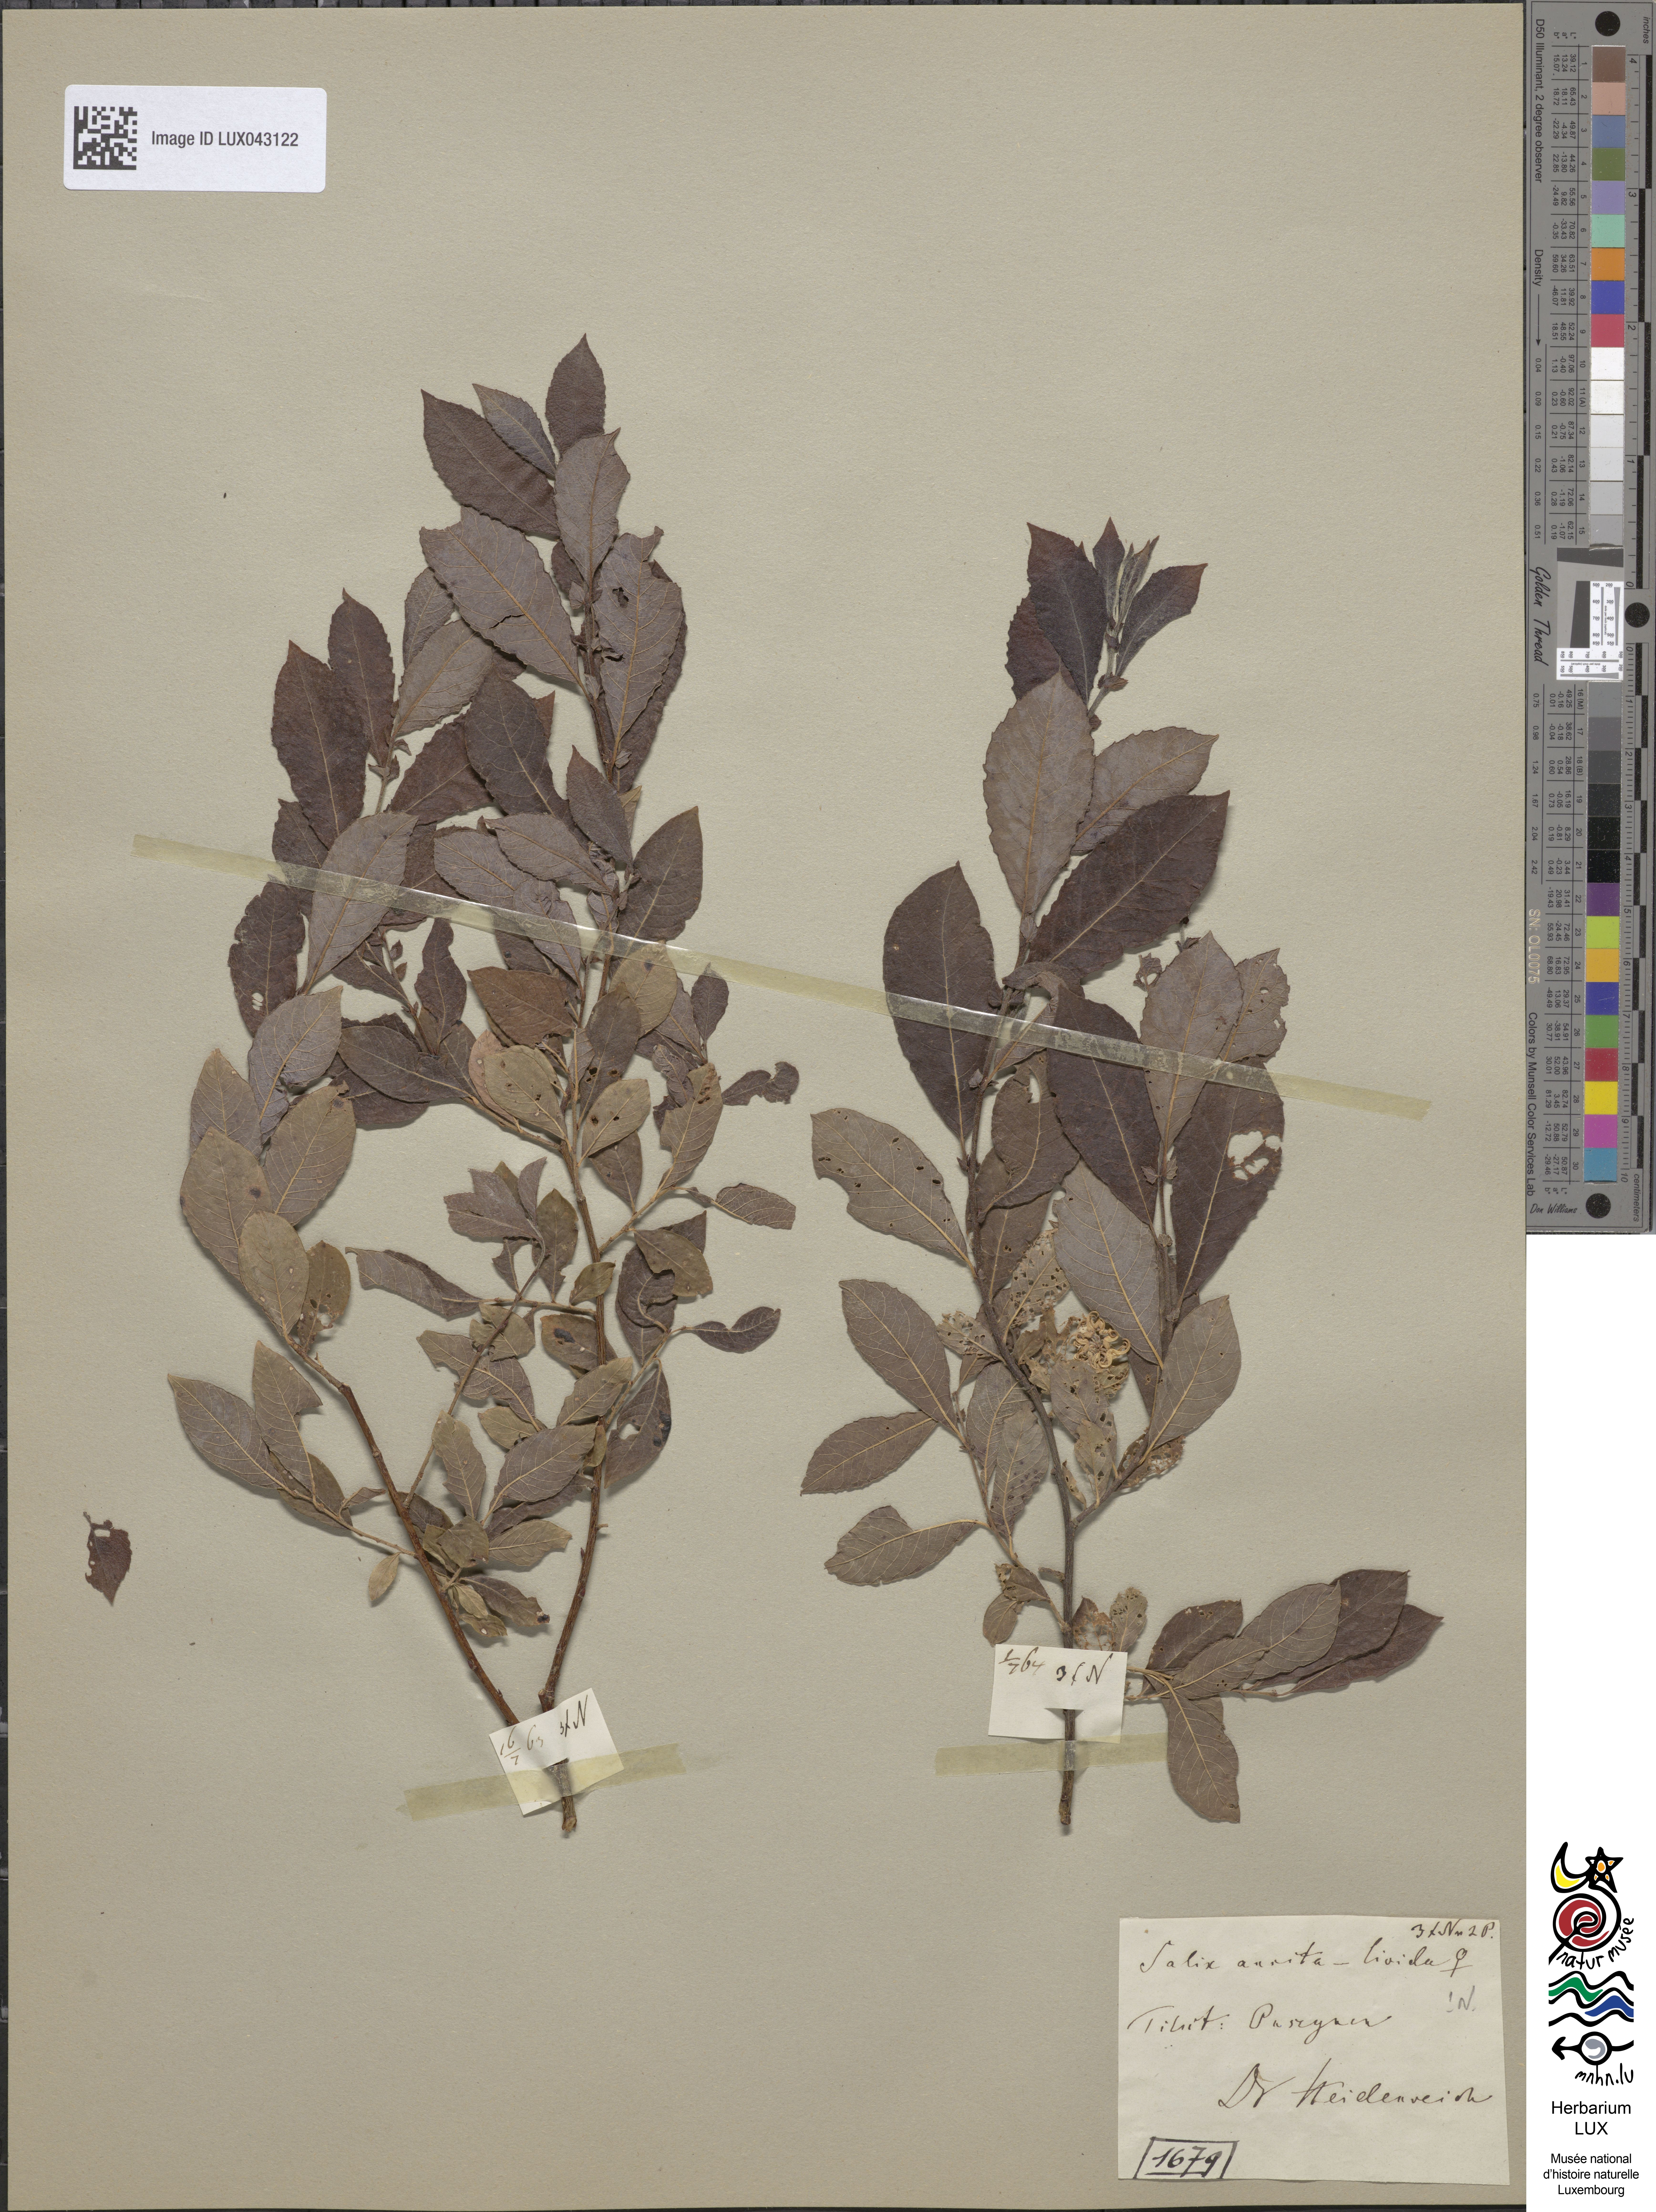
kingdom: Plantae
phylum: Tracheophyta
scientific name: Tracheophyta
